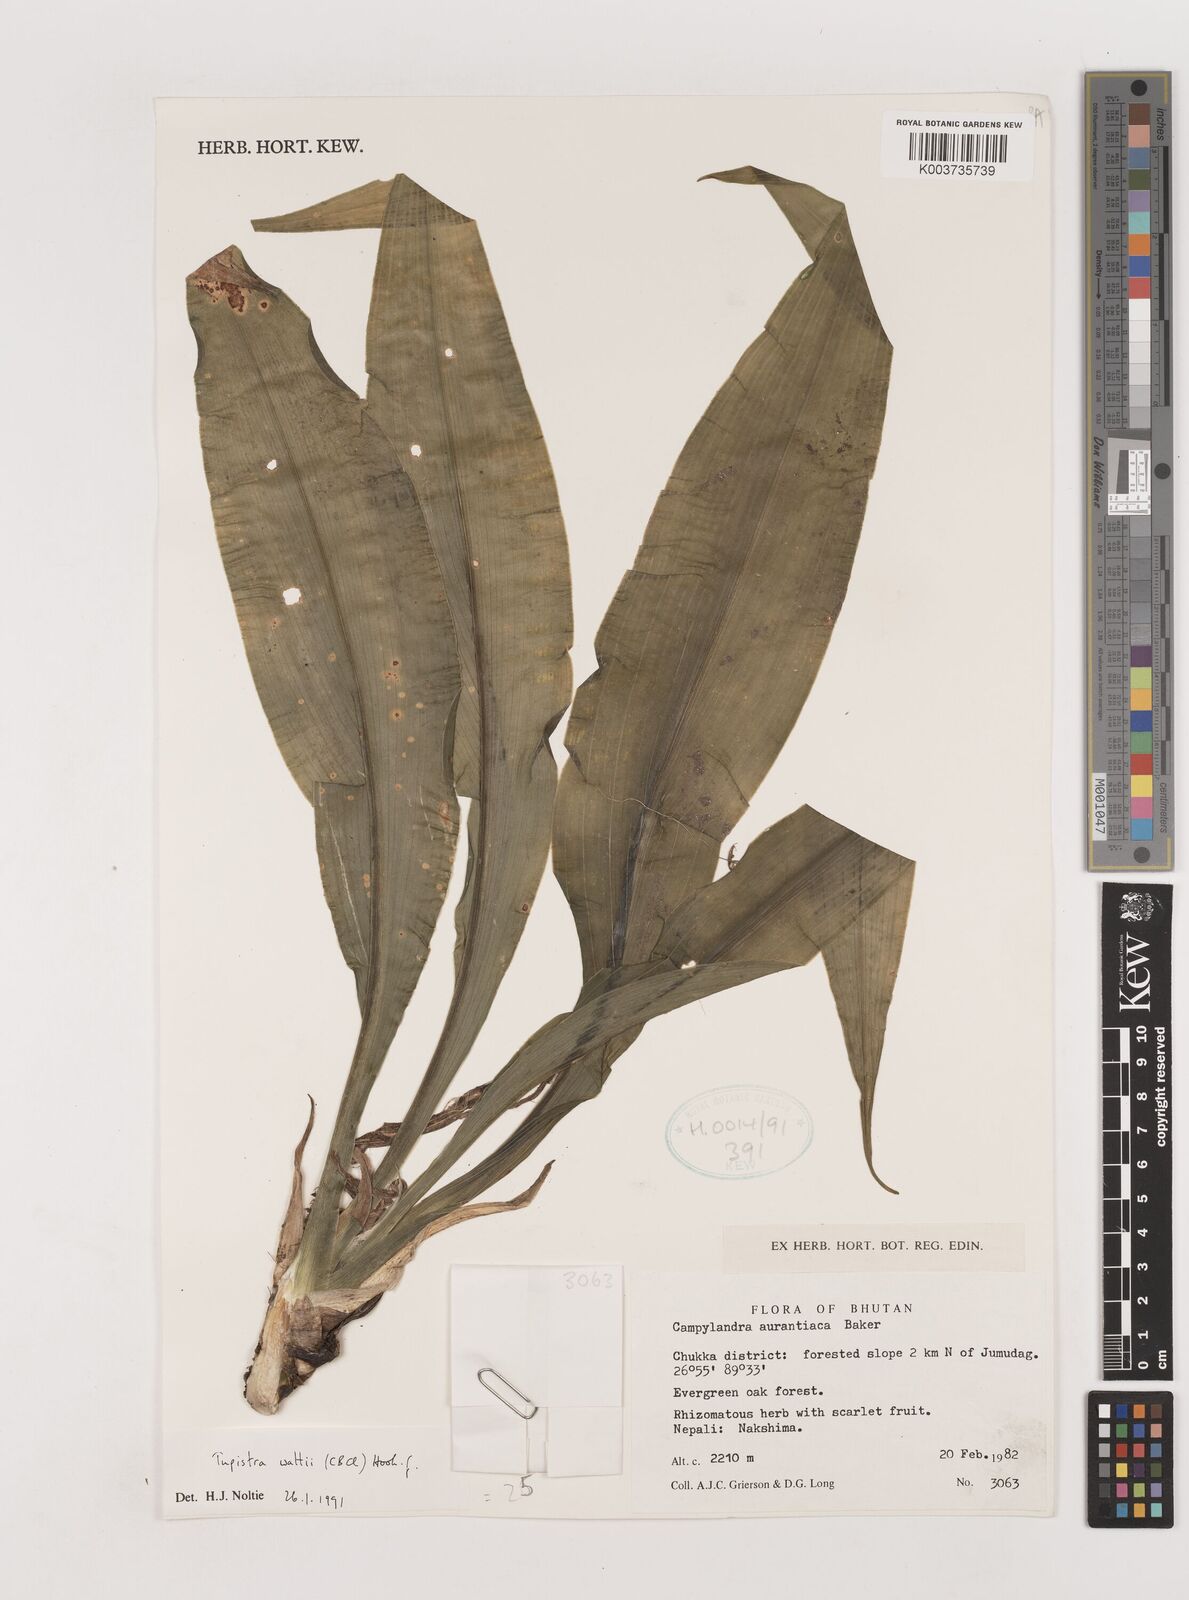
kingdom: Plantae
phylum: Tracheophyta
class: Liliopsida
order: Asparagales
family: Asparagaceae
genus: Rohdea
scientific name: Rohdea wattii
